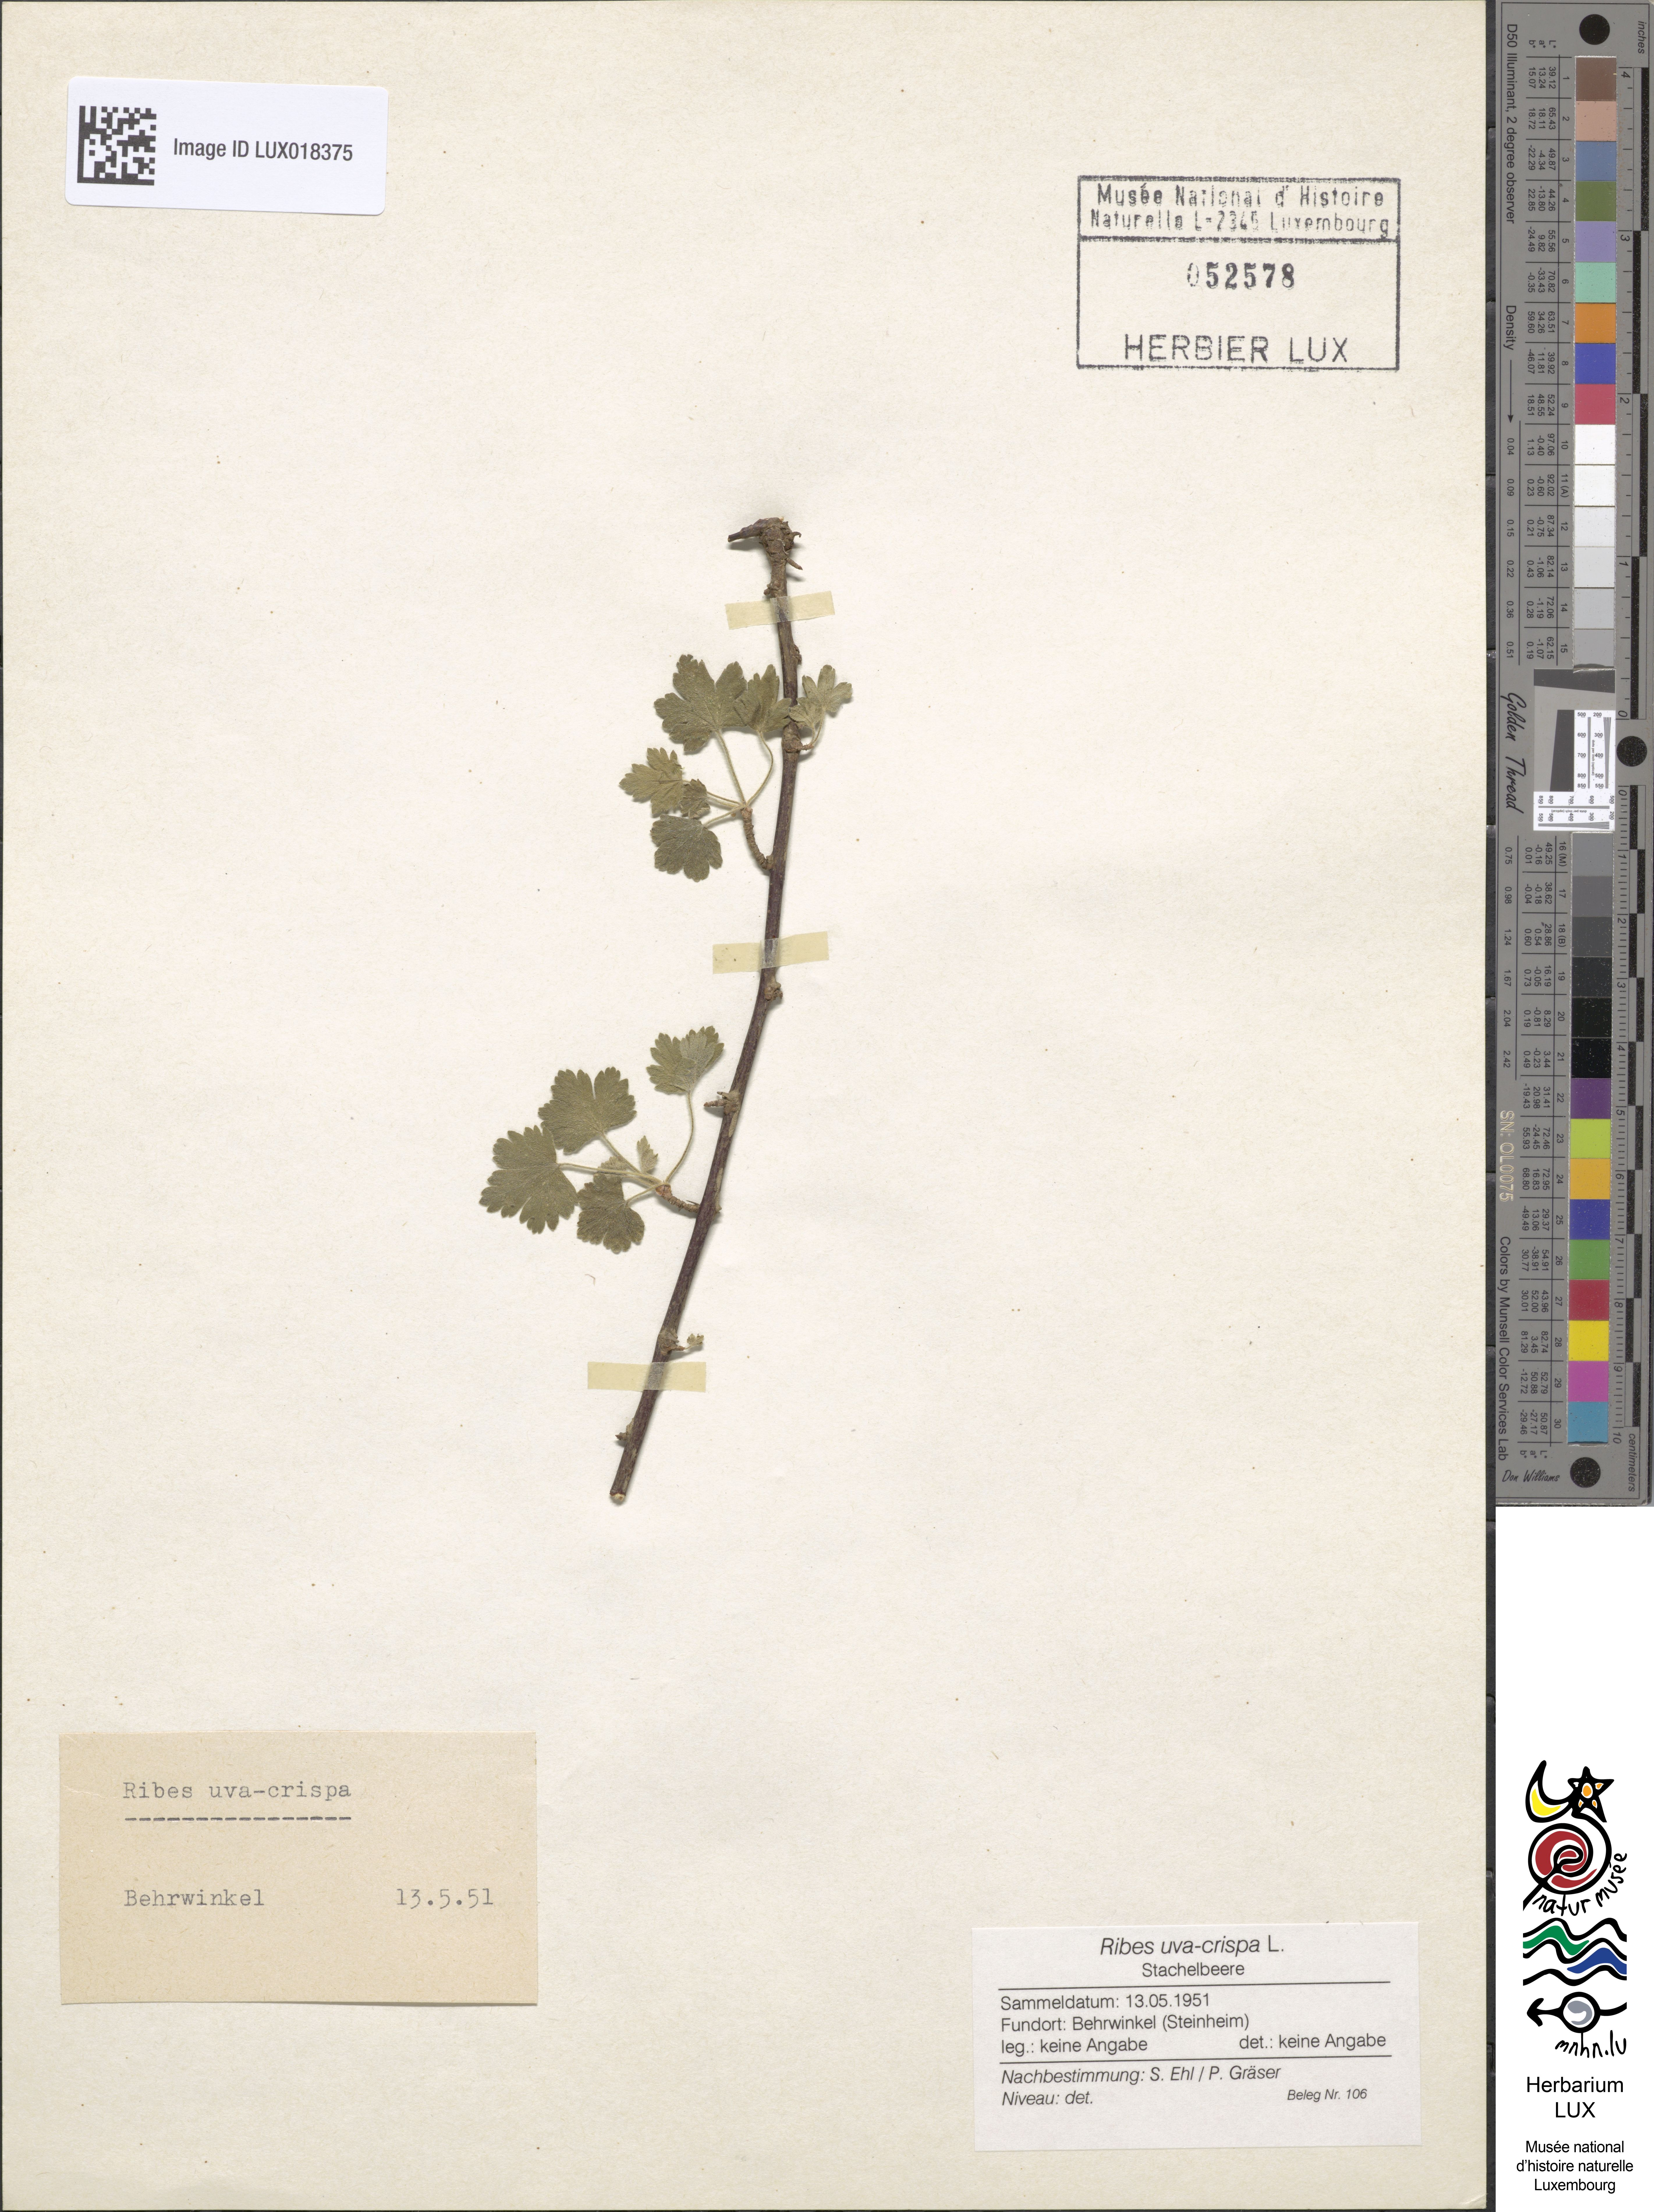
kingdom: Plantae
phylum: Tracheophyta
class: Magnoliopsida
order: Saxifragales
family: Grossulariaceae
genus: Ribes
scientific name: Ribes uva-crispa
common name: Gooseberry
